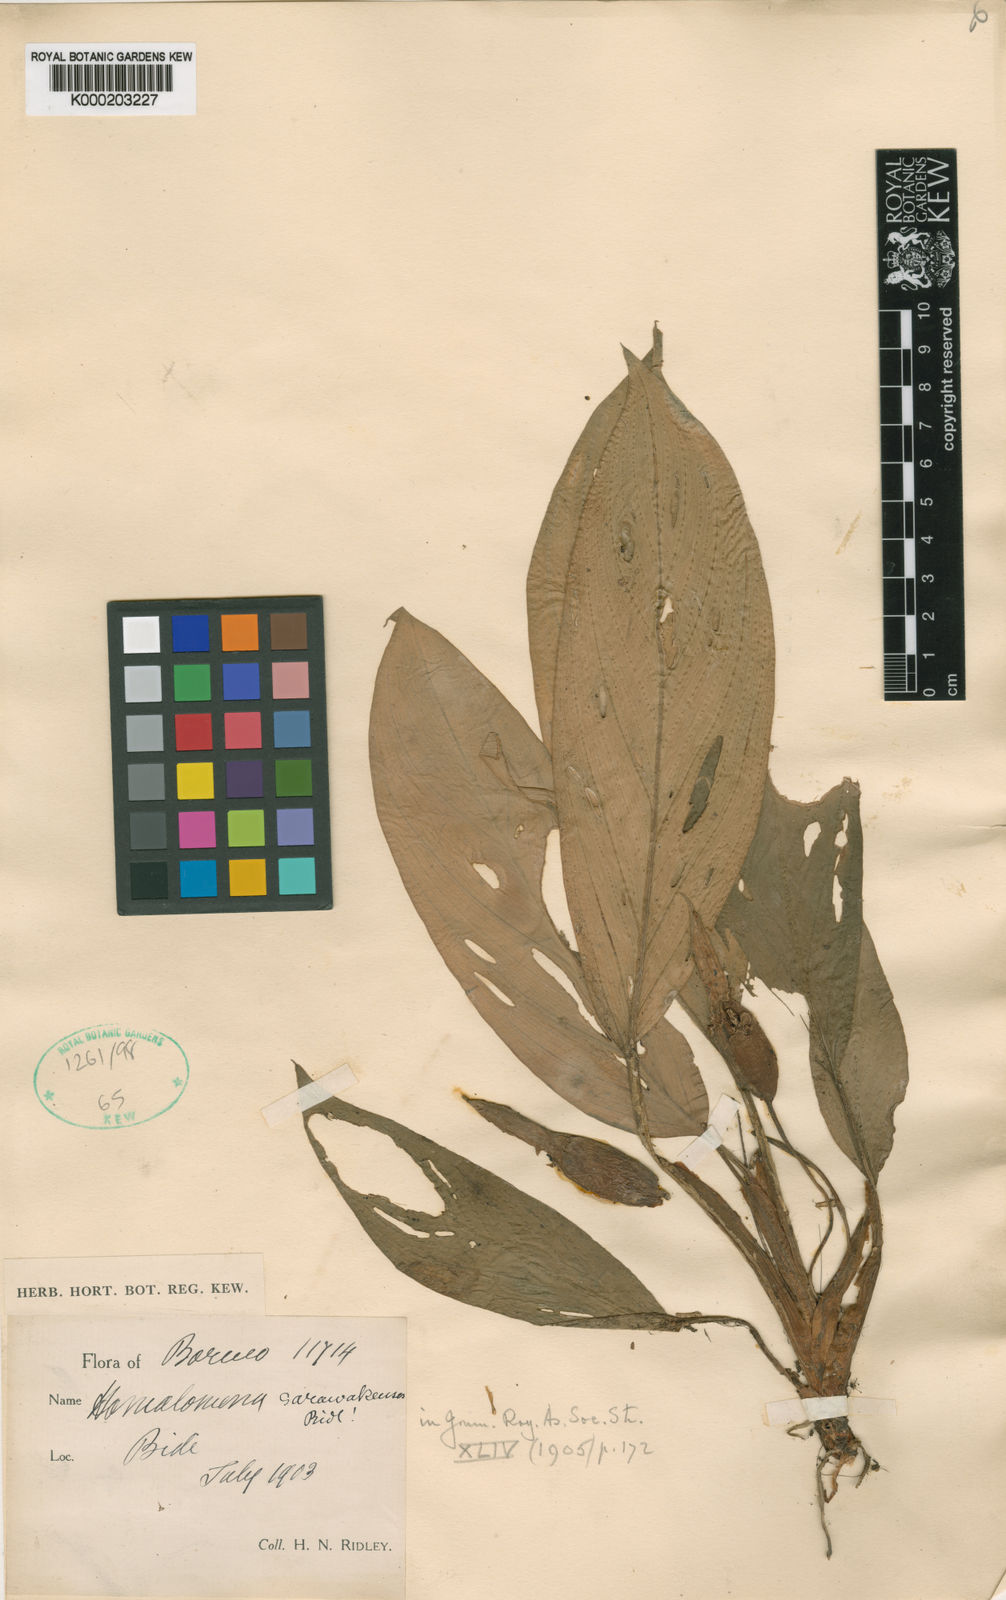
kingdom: Plantae
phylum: Tracheophyta
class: Liliopsida
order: Alismatales
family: Araceae
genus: Homalomena
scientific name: Homalomena sarawakensis
